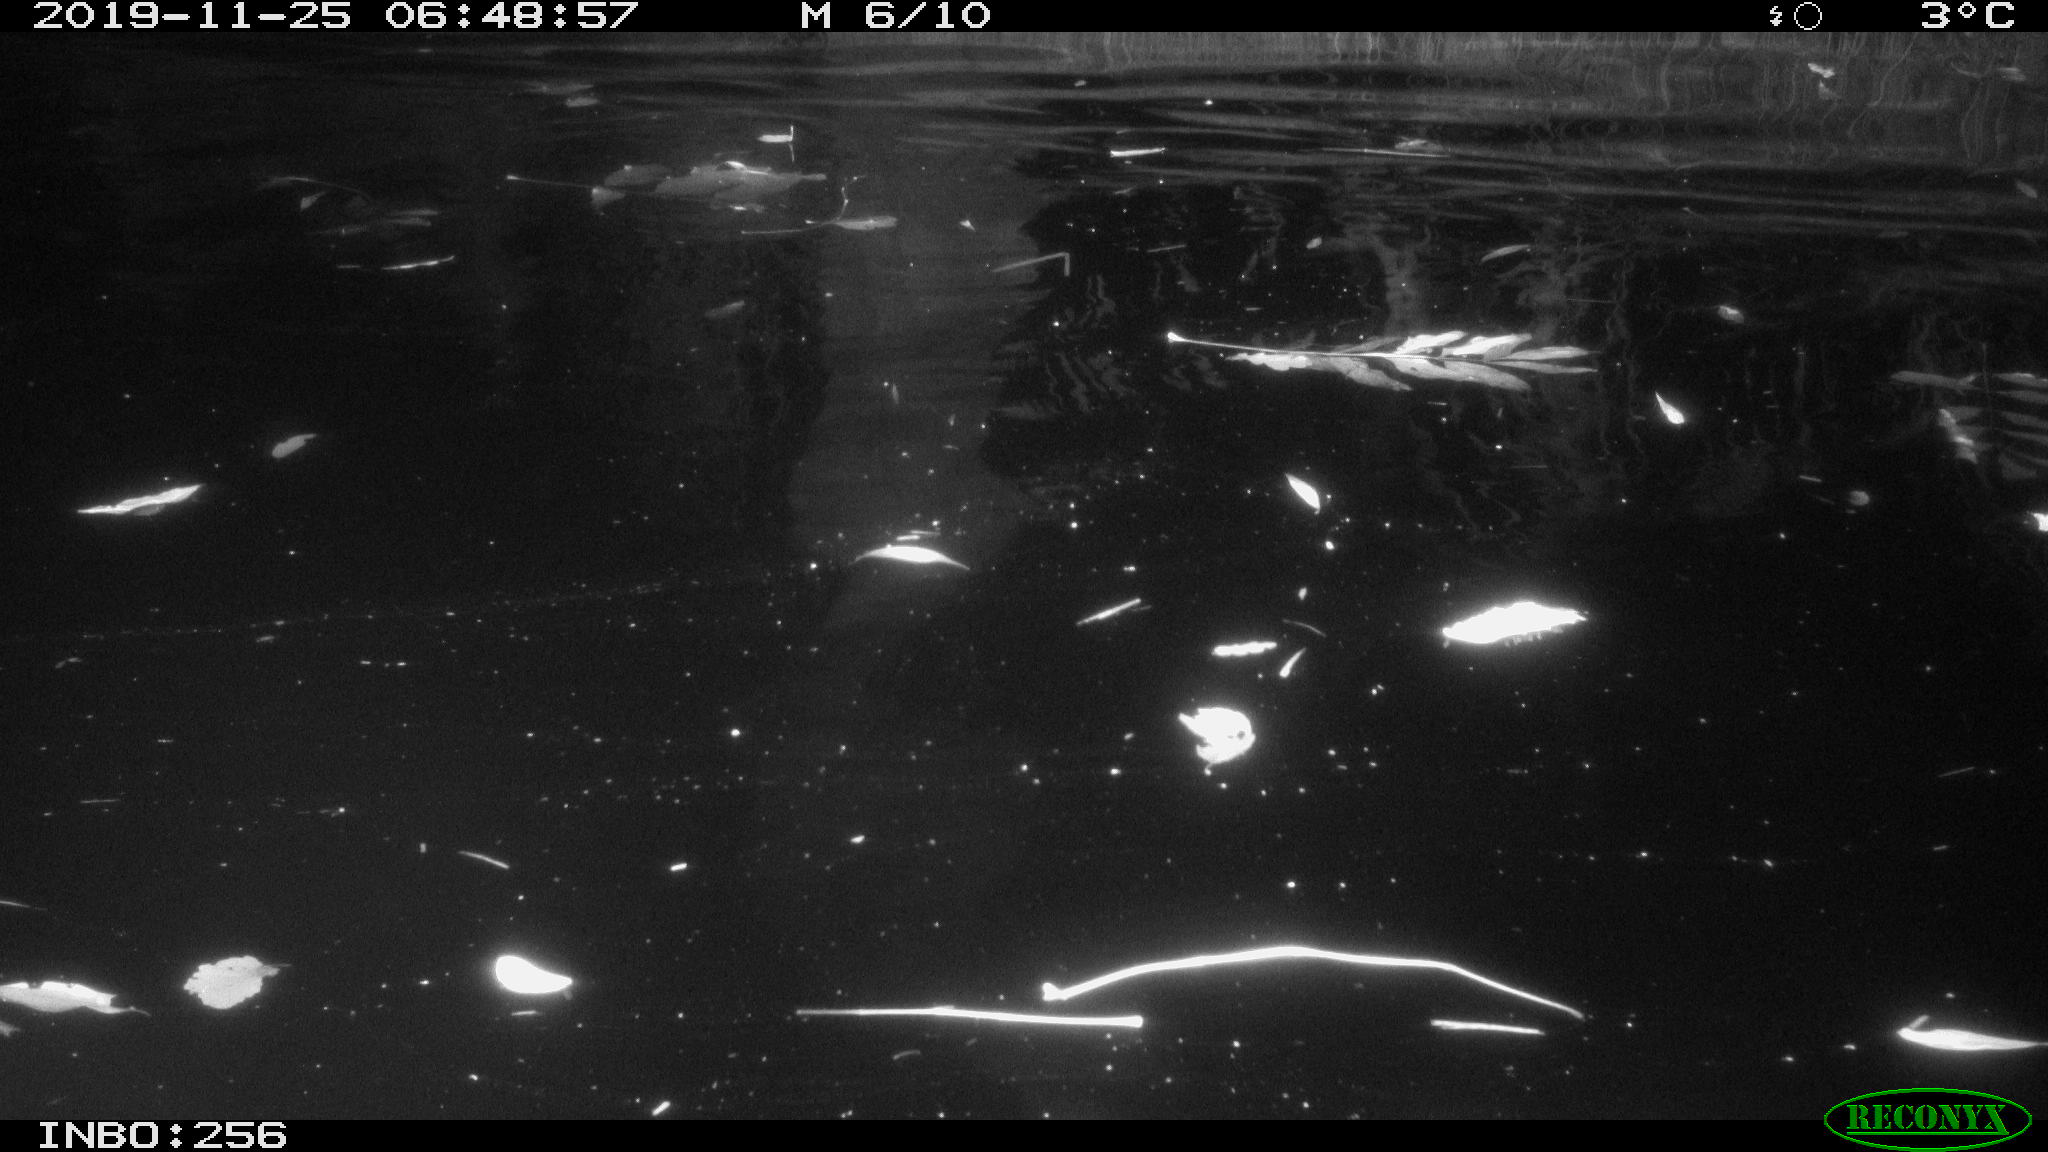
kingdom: Animalia
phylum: Chordata
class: Aves
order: Anseriformes
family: Anatidae
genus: Anas
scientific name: Anas platyrhynchos
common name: Mallard
